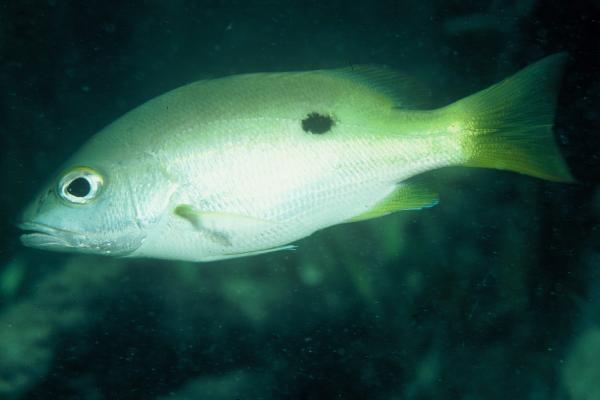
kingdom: Animalia
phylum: Chordata
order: Perciformes
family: Lutjanidae
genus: Lutjanus
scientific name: Lutjanus fulviflamma
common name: Blackspot snapper
